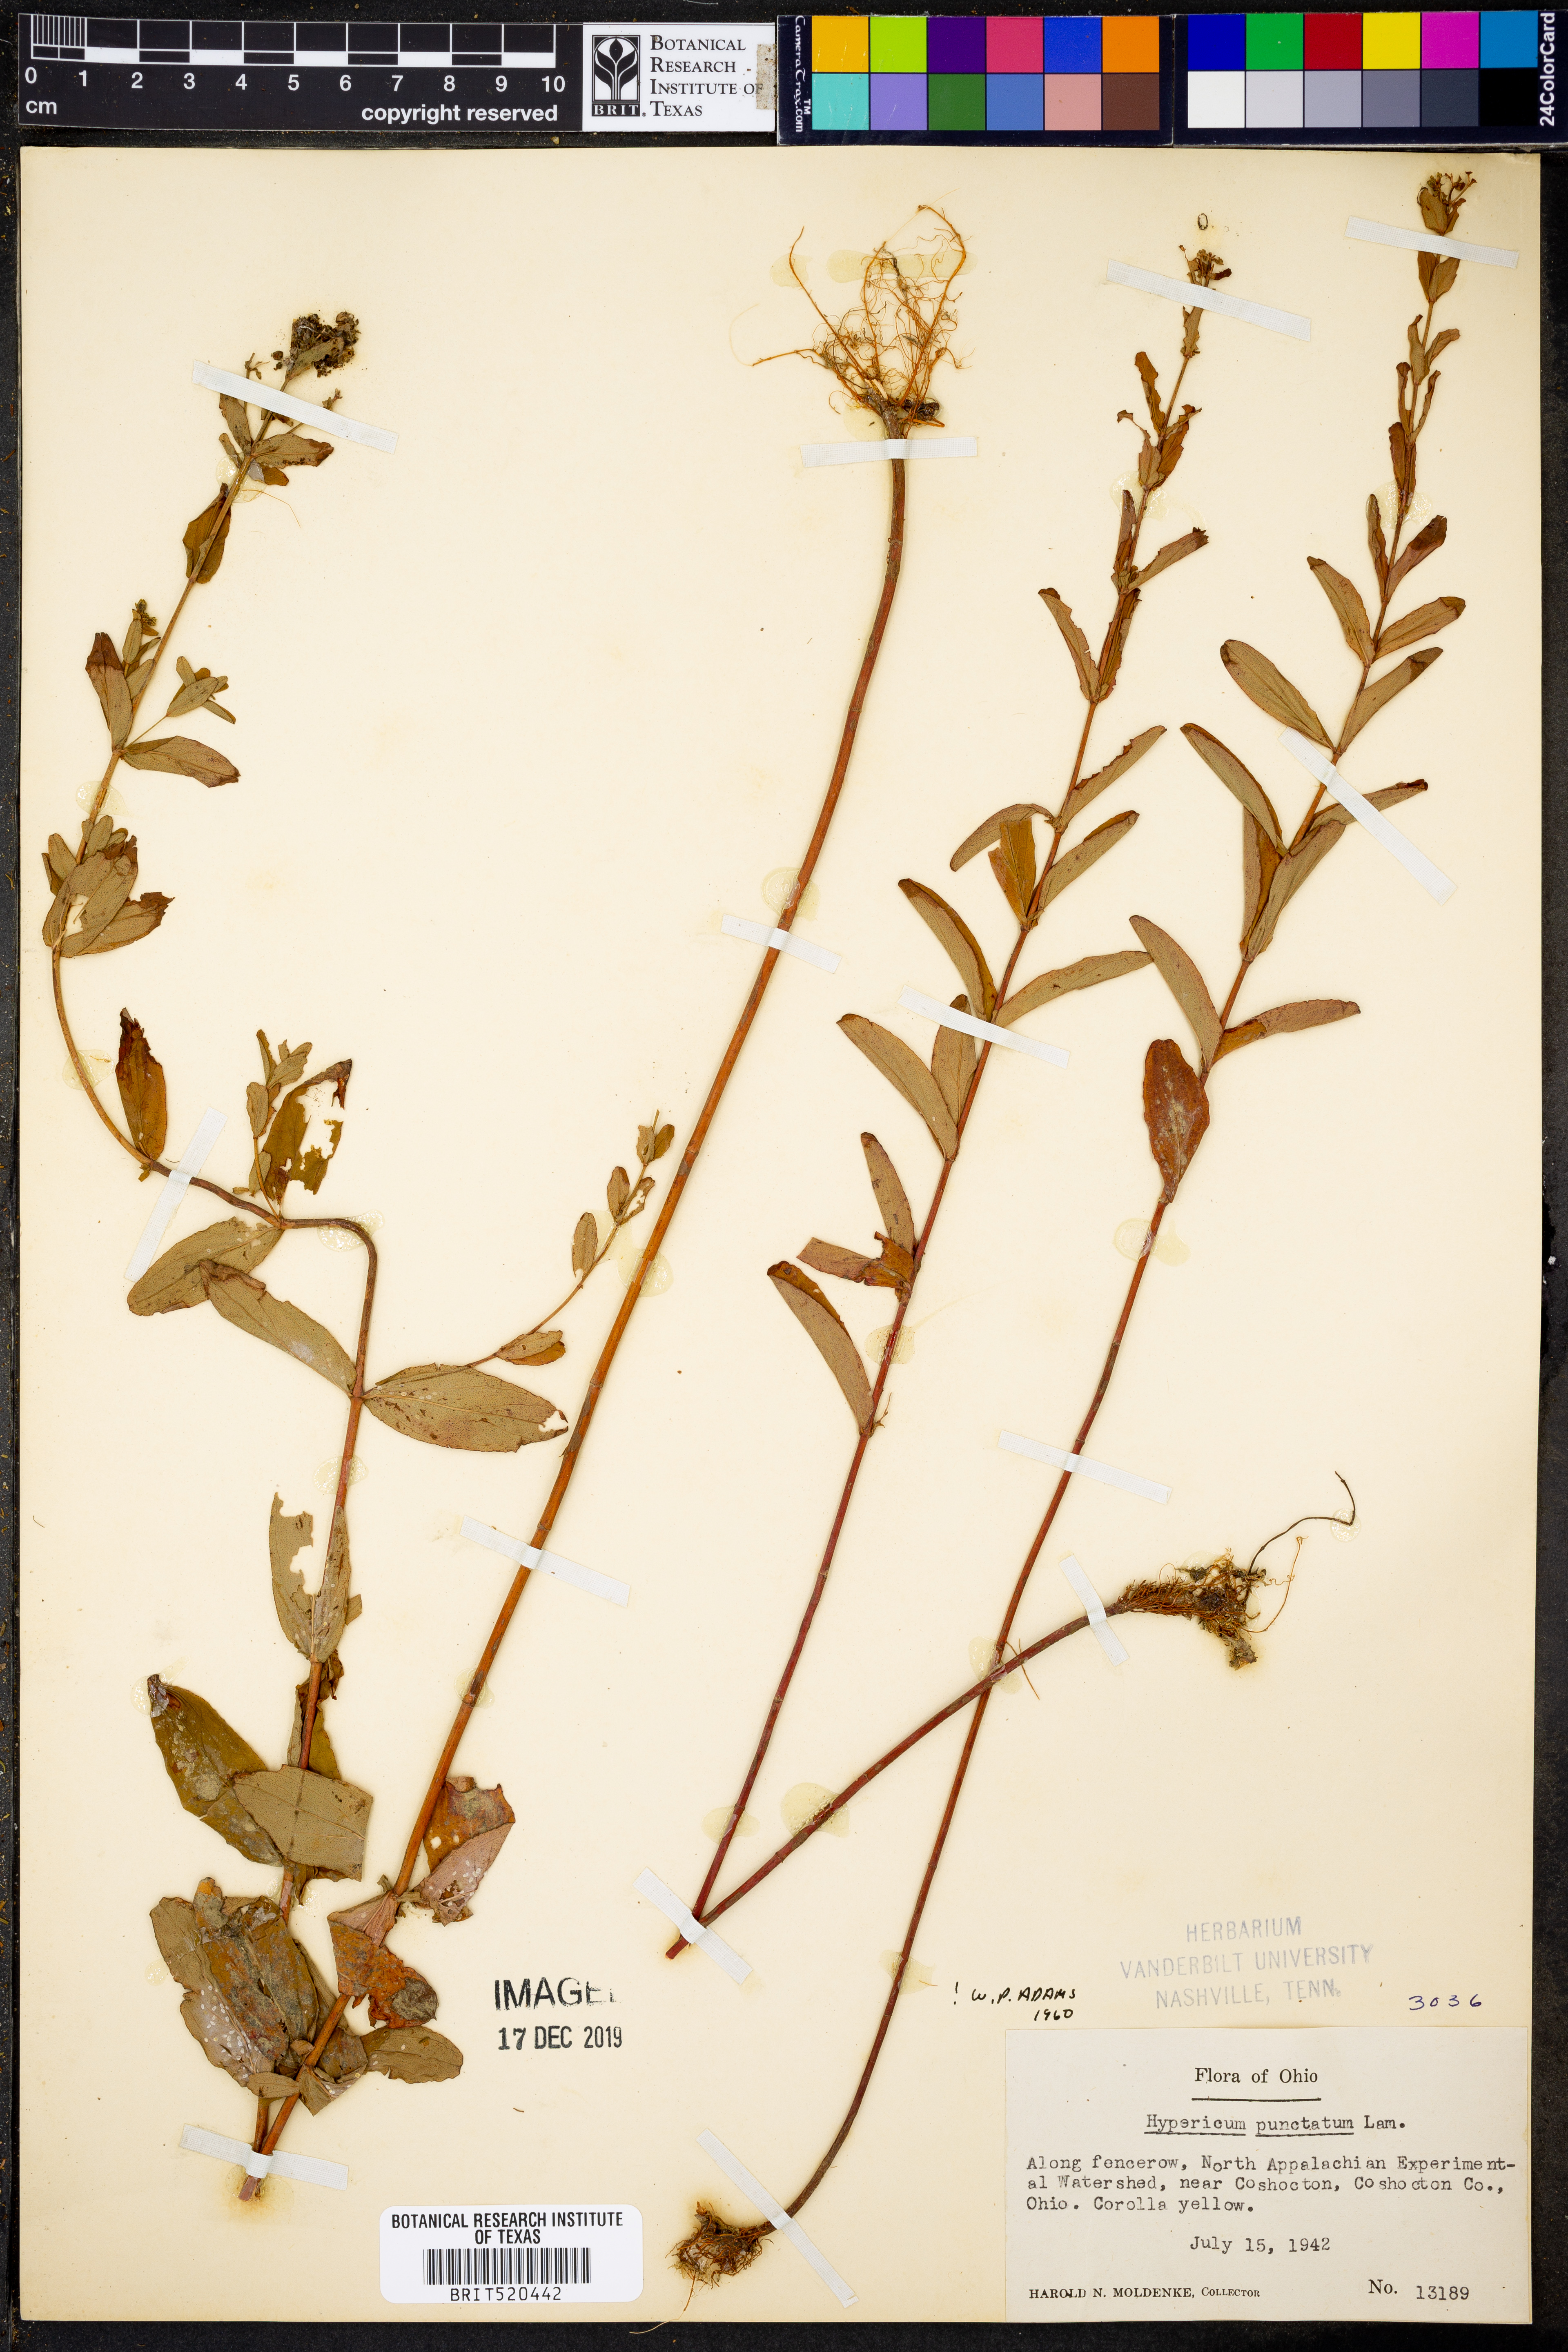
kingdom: Plantae
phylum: Tracheophyta
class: Magnoliopsida
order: Malpighiales
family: Hypericaceae
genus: Hypericum
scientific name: Hypericum punctatum
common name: Spotted st. john's-wort
